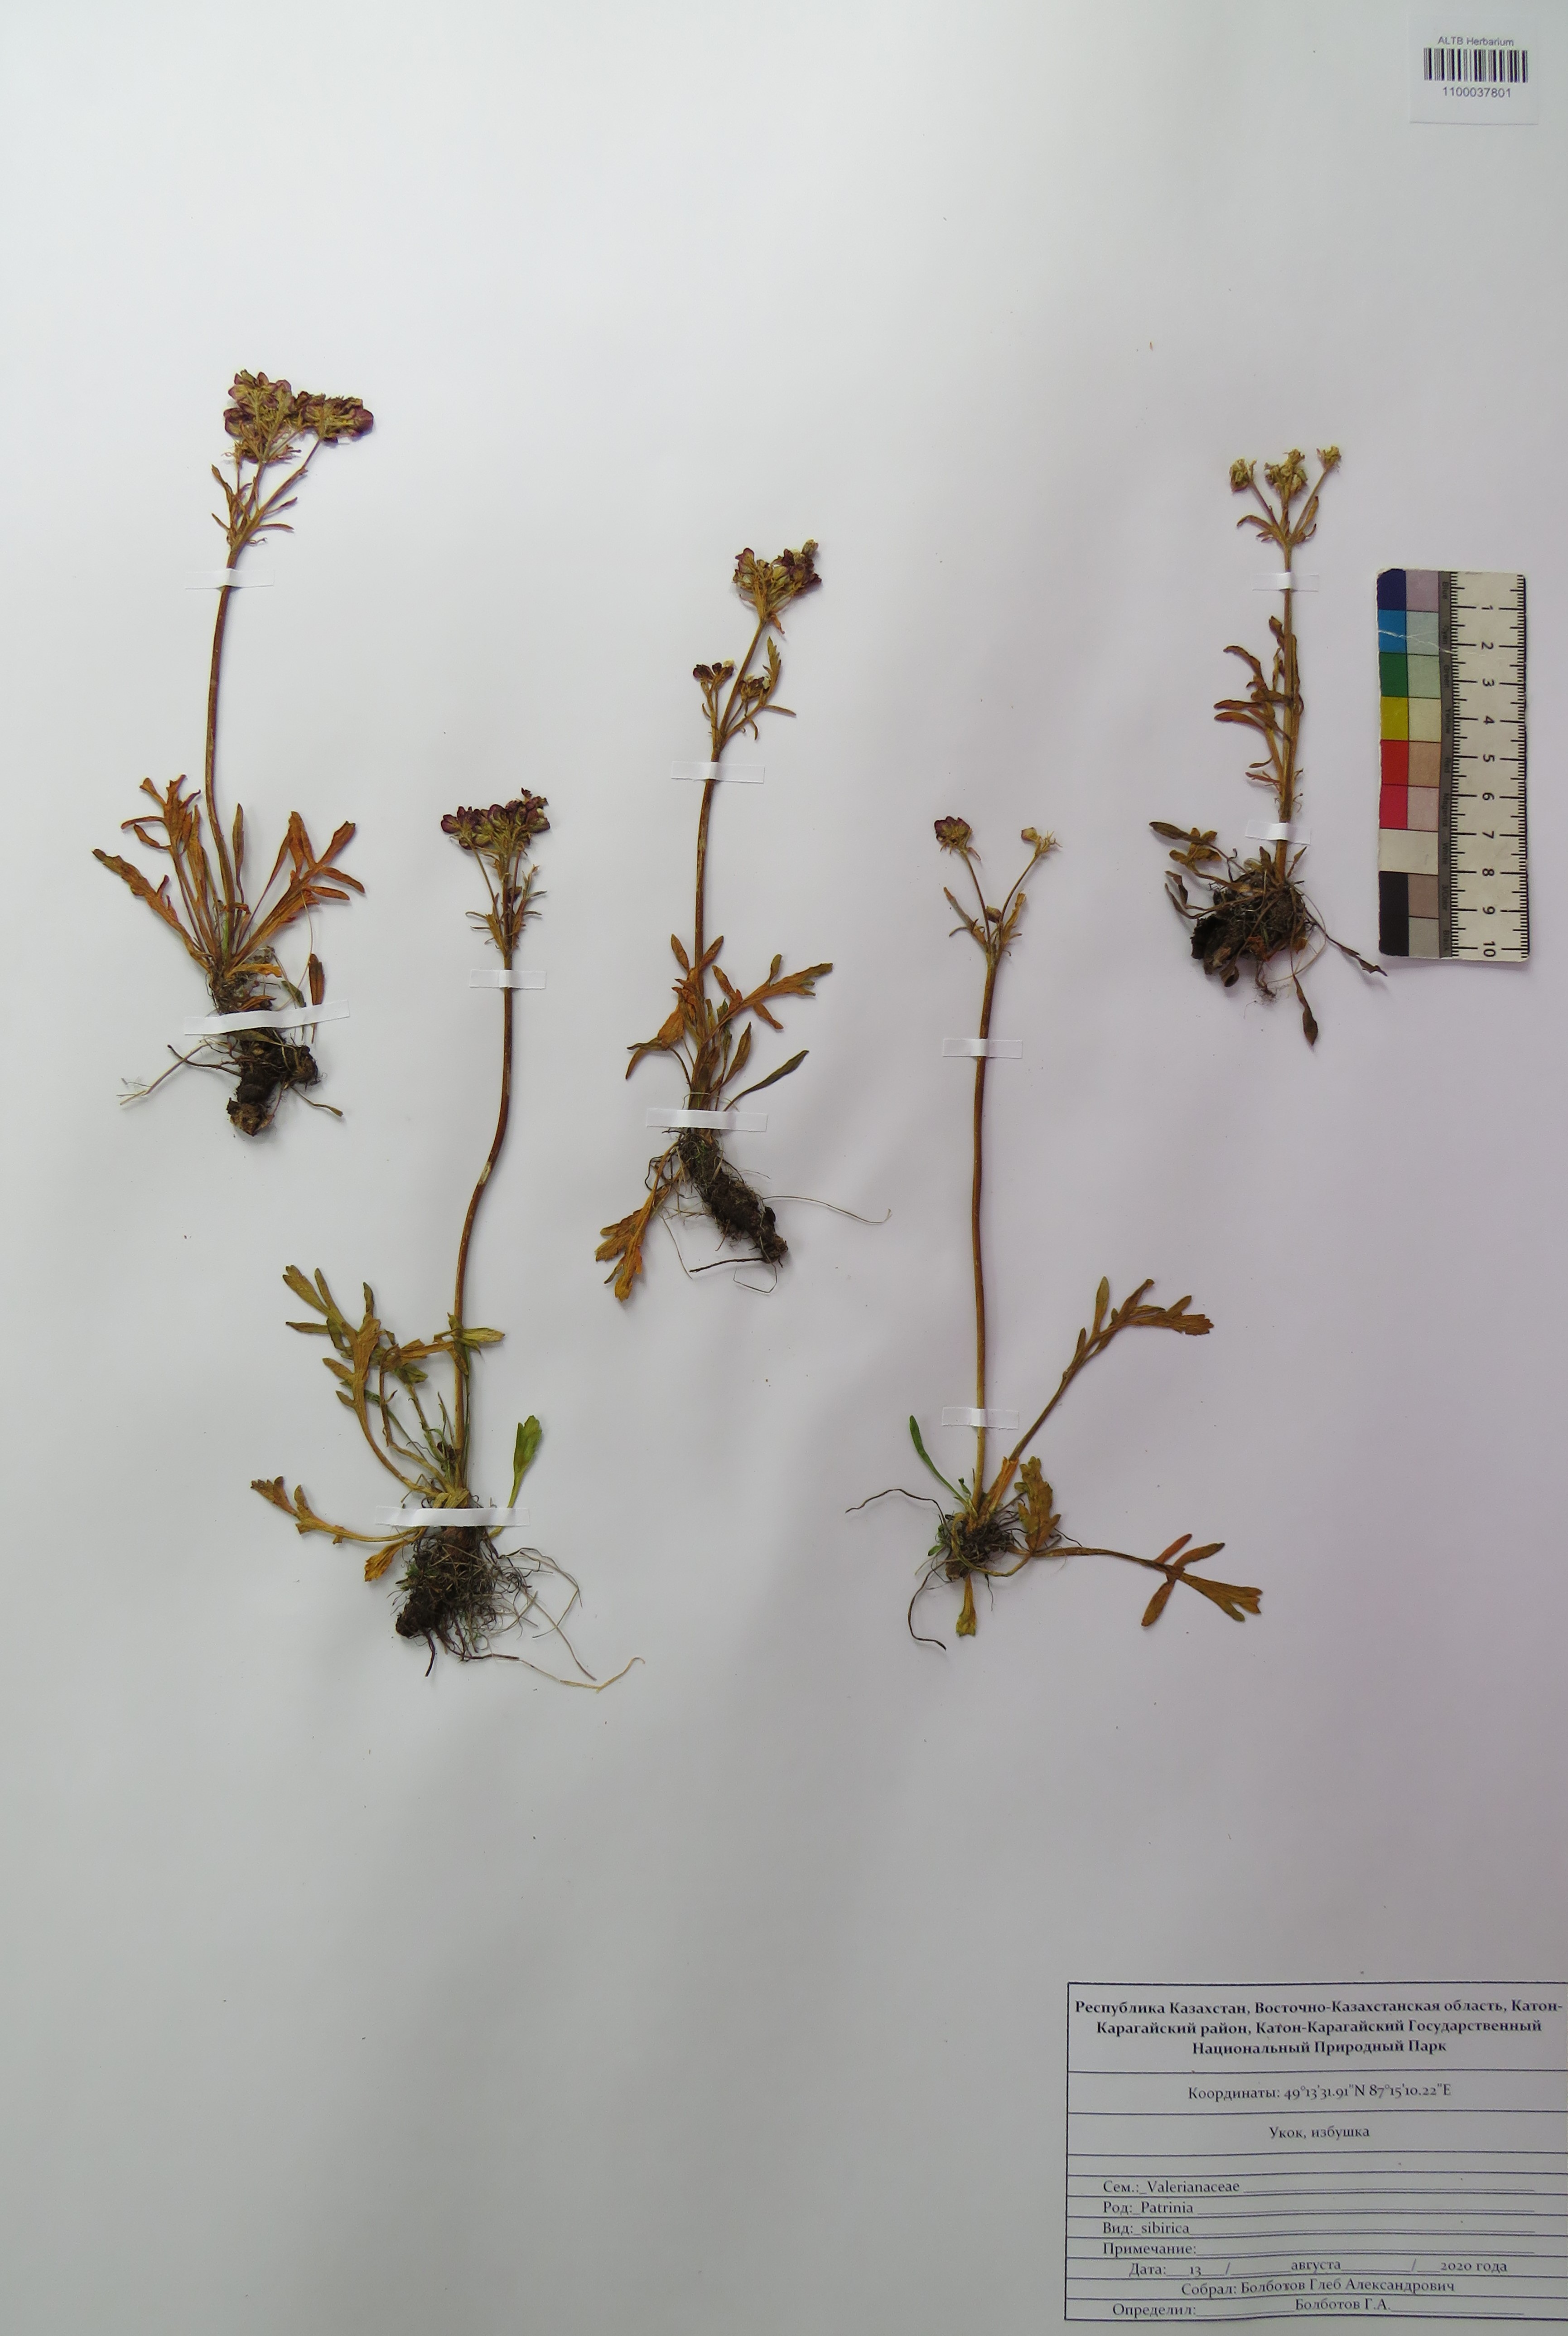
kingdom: Plantae
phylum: Tracheophyta
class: Magnoliopsida
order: Dipsacales
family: Caprifoliaceae
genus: Patrinia
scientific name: Patrinia sibirica
